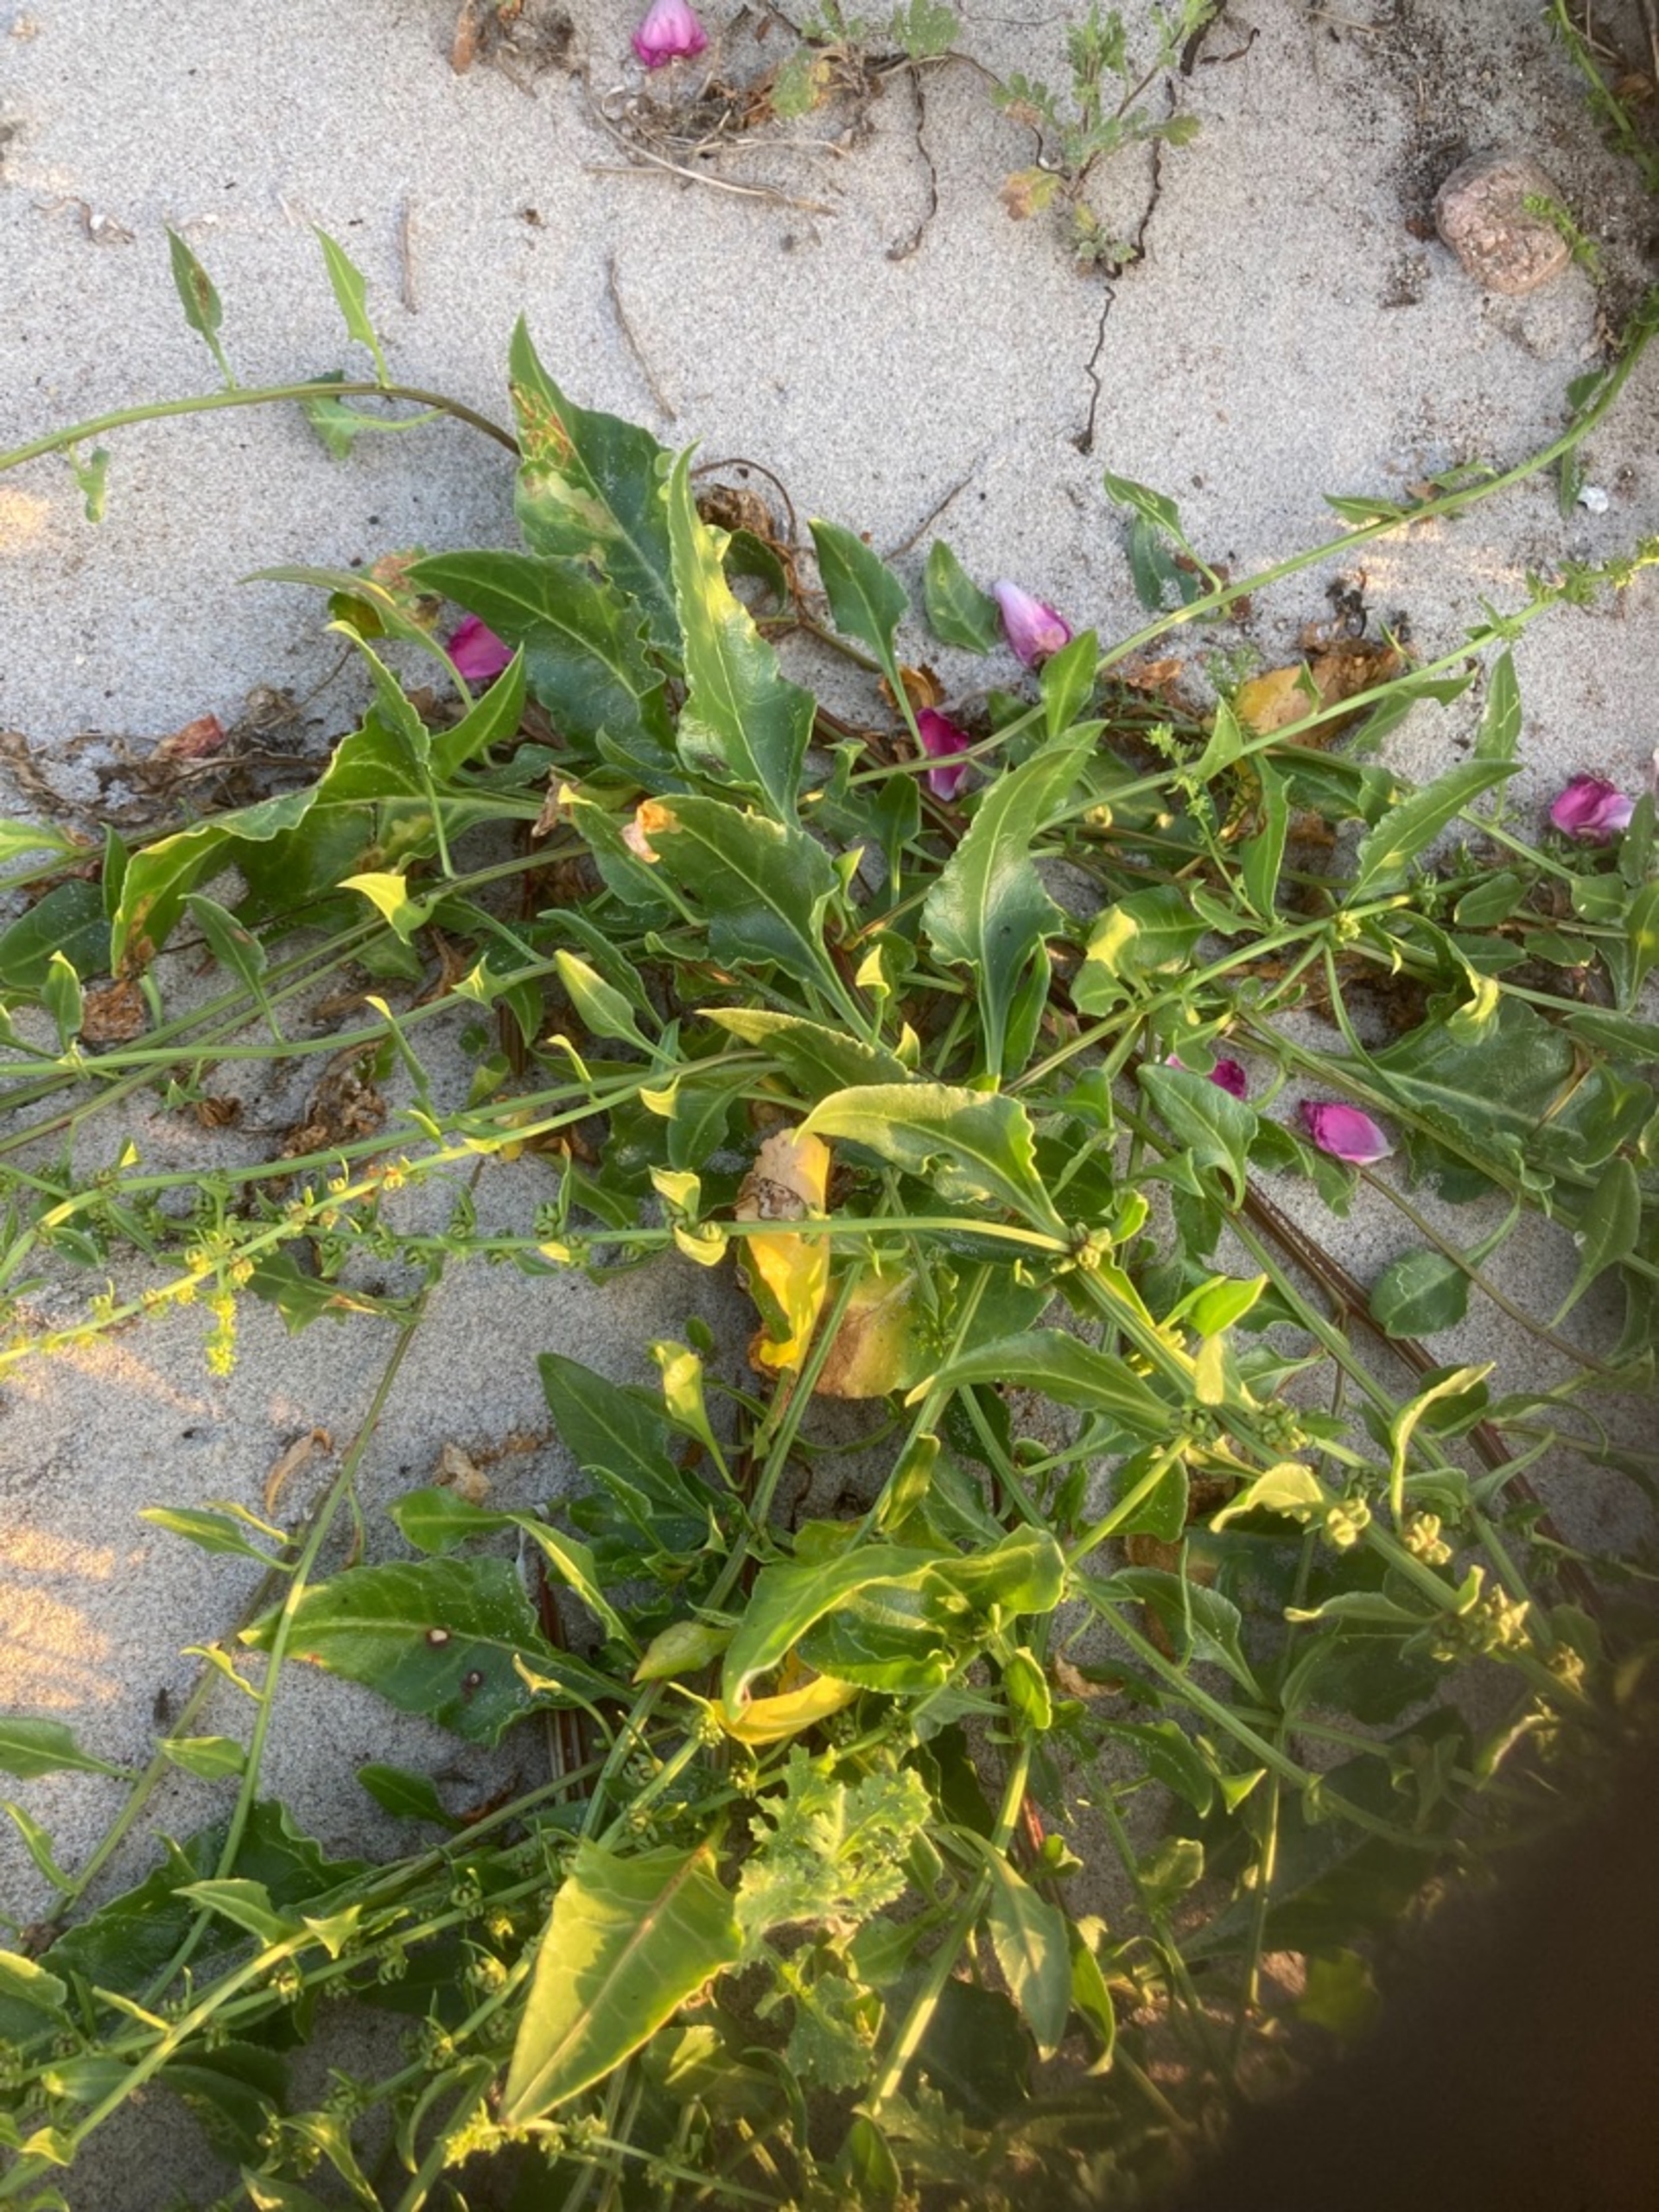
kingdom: Plantae
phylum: Tracheophyta
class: Magnoliopsida
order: Caryophyllales
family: Amaranthaceae
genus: Beta
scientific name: Beta maritima
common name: Strand-bede
